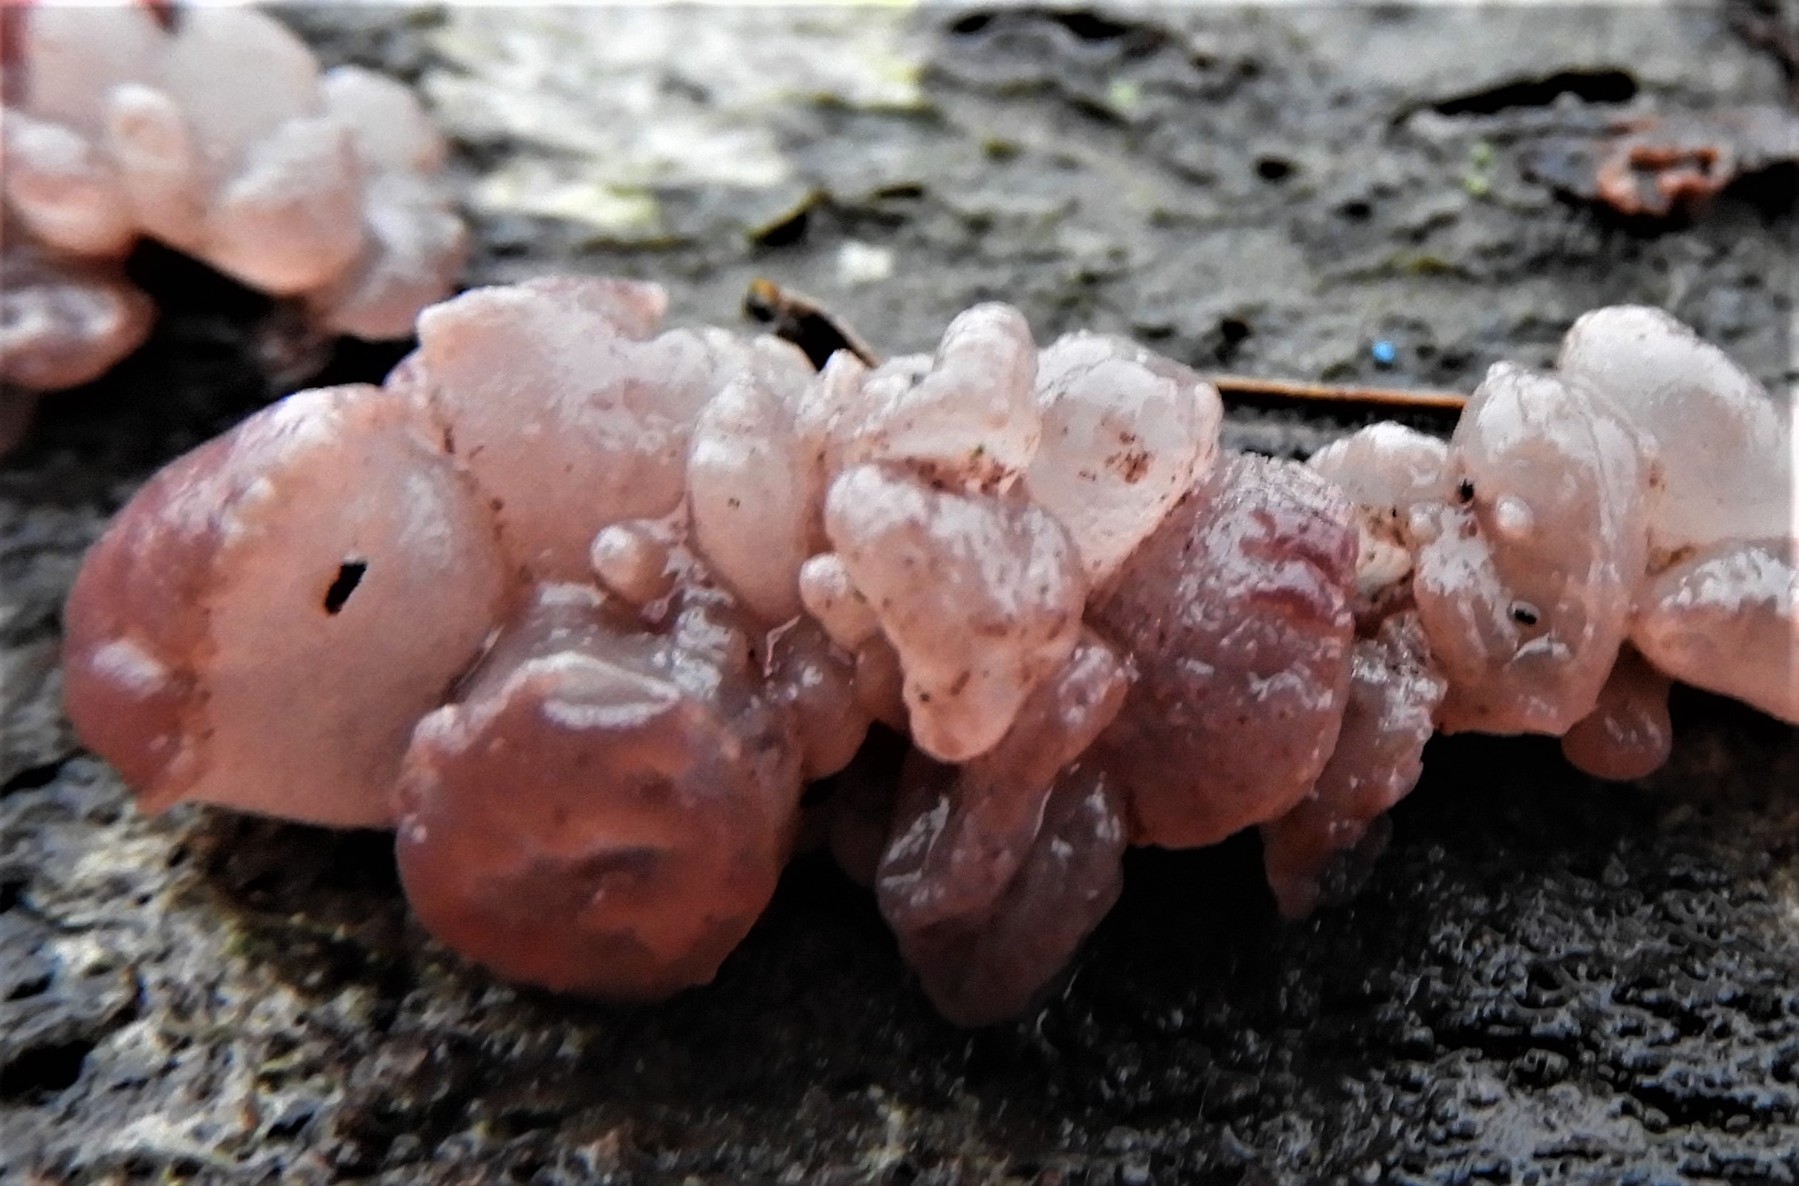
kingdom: Fungi
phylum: Ascomycota
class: Leotiomycetes
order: Helotiales
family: Helotiaceae
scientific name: Helotiaceae
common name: stilkskivefamilien
